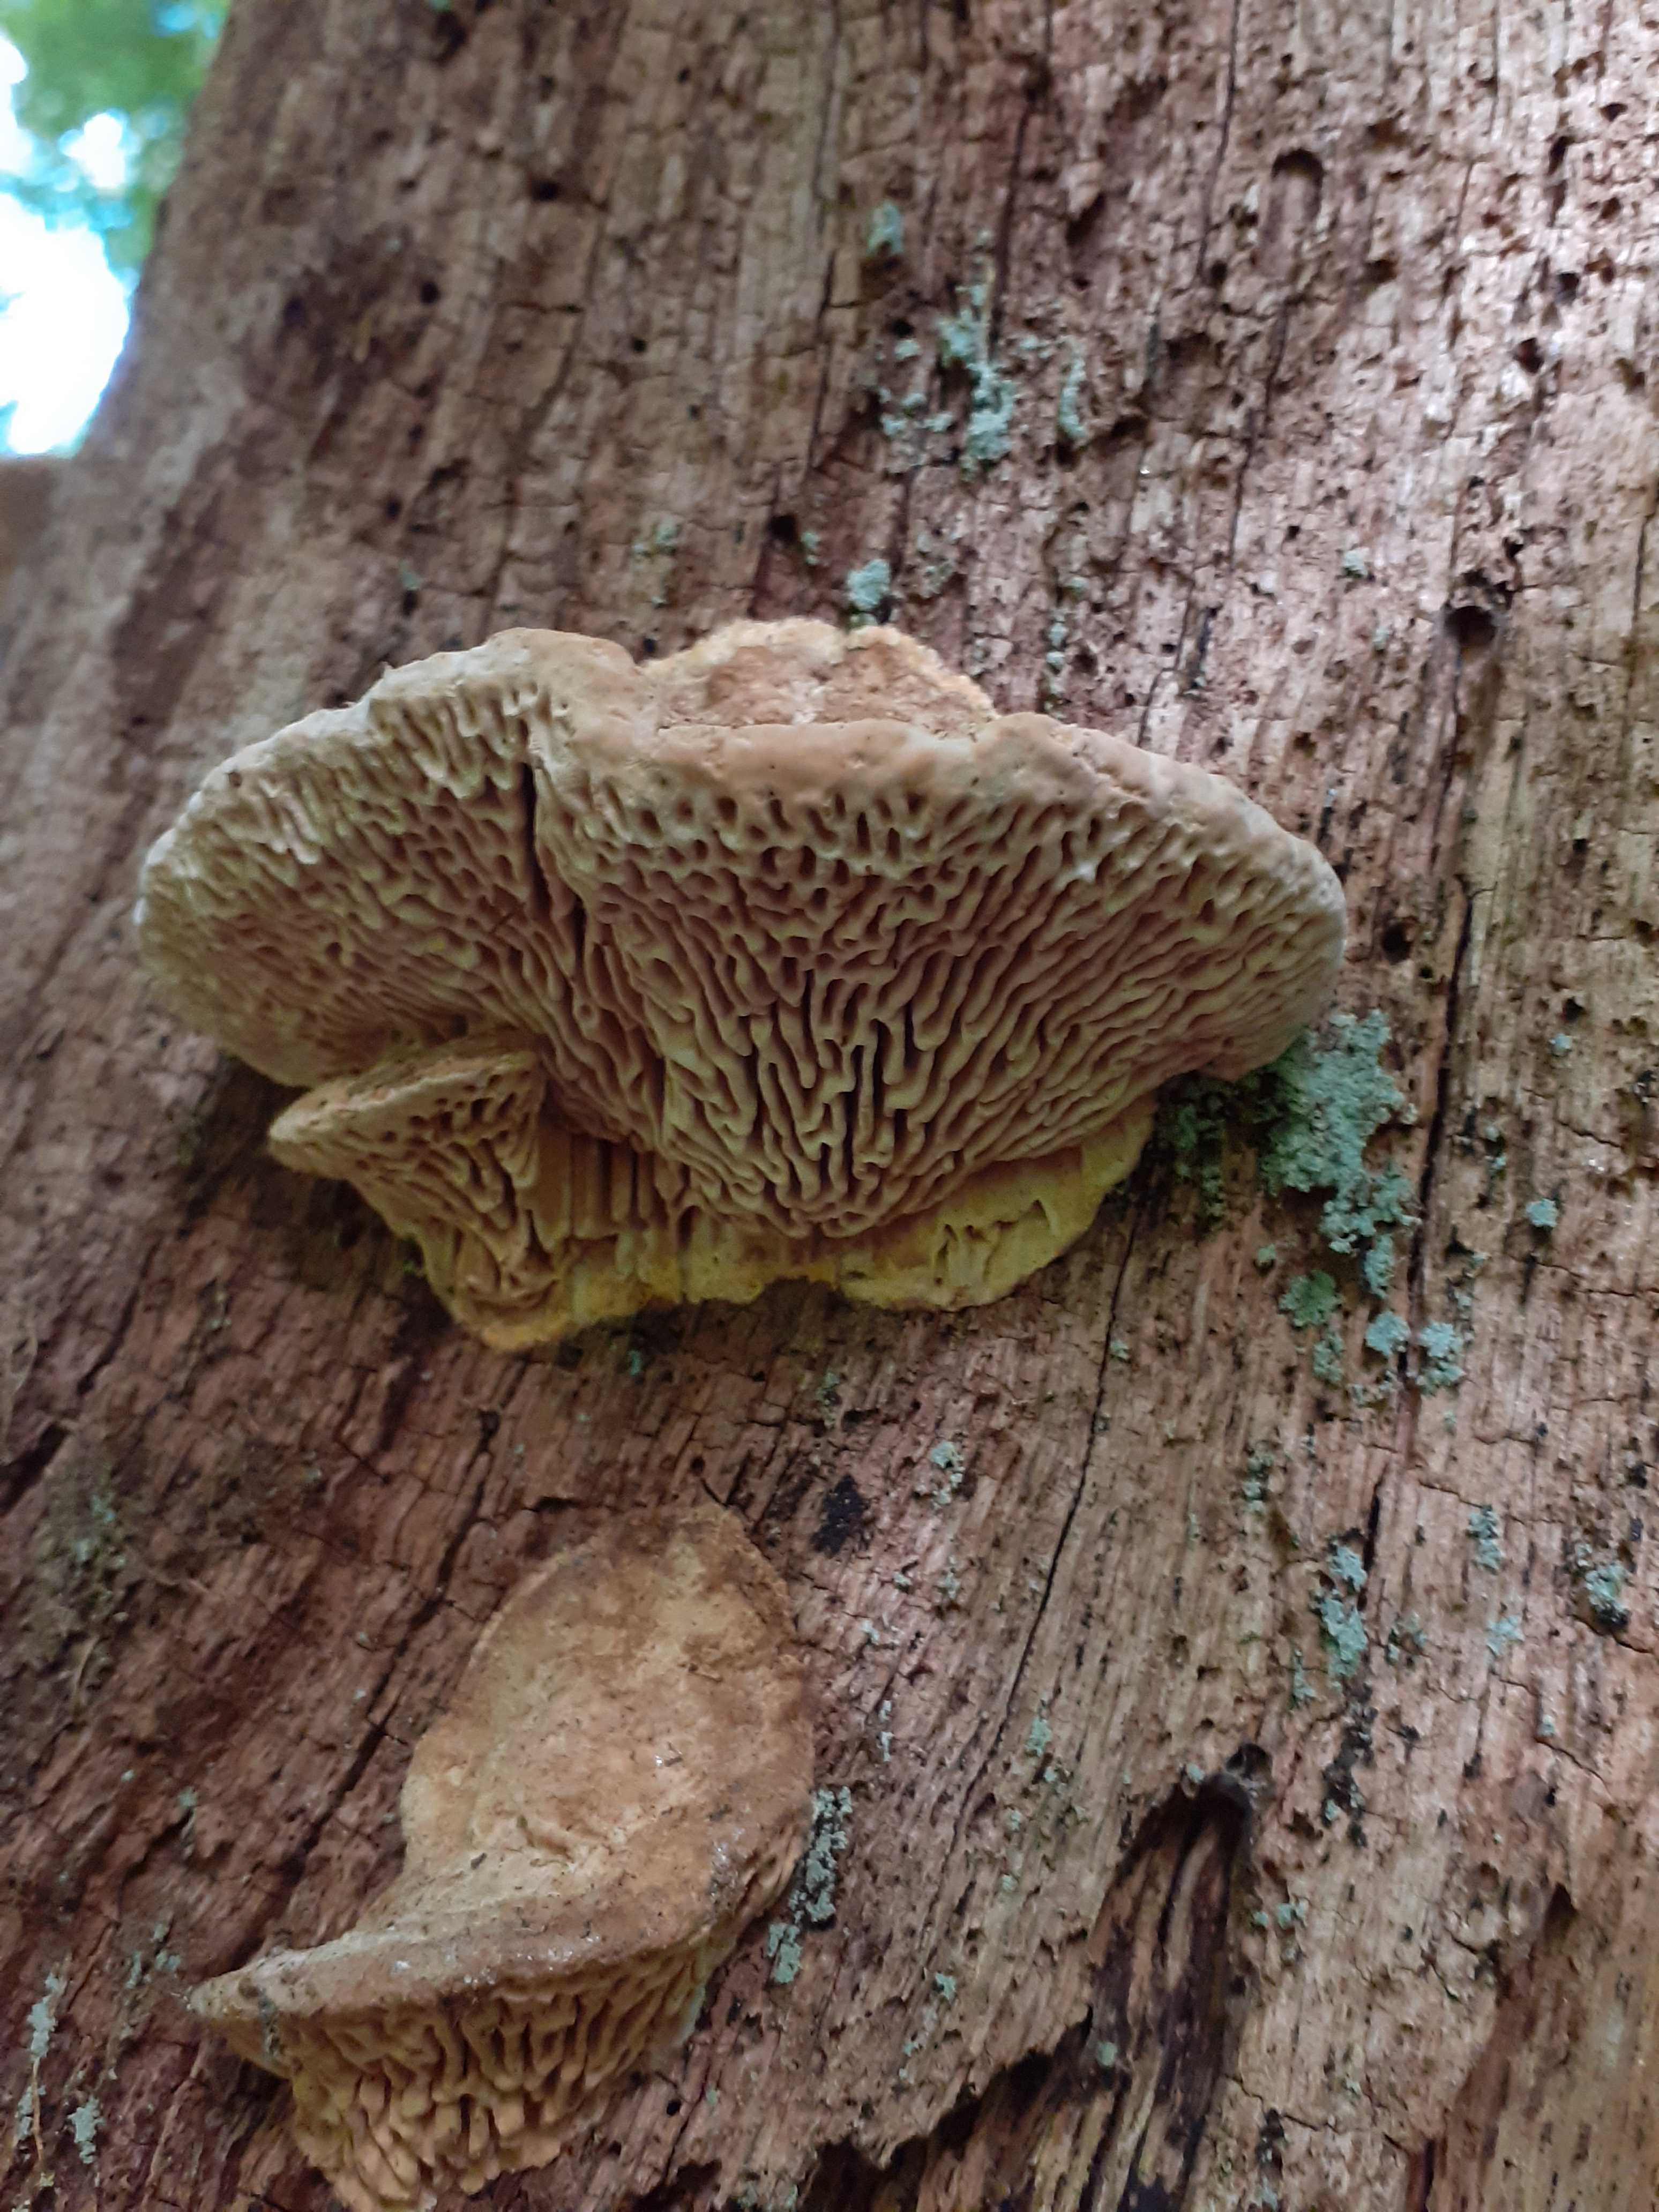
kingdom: Fungi
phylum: Basidiomycota
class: Agaricomycetes
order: Polyporales
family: Fomitopsidaceae
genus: Daedalea
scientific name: Daedalea quercina
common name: ege-labyrintsvamp
